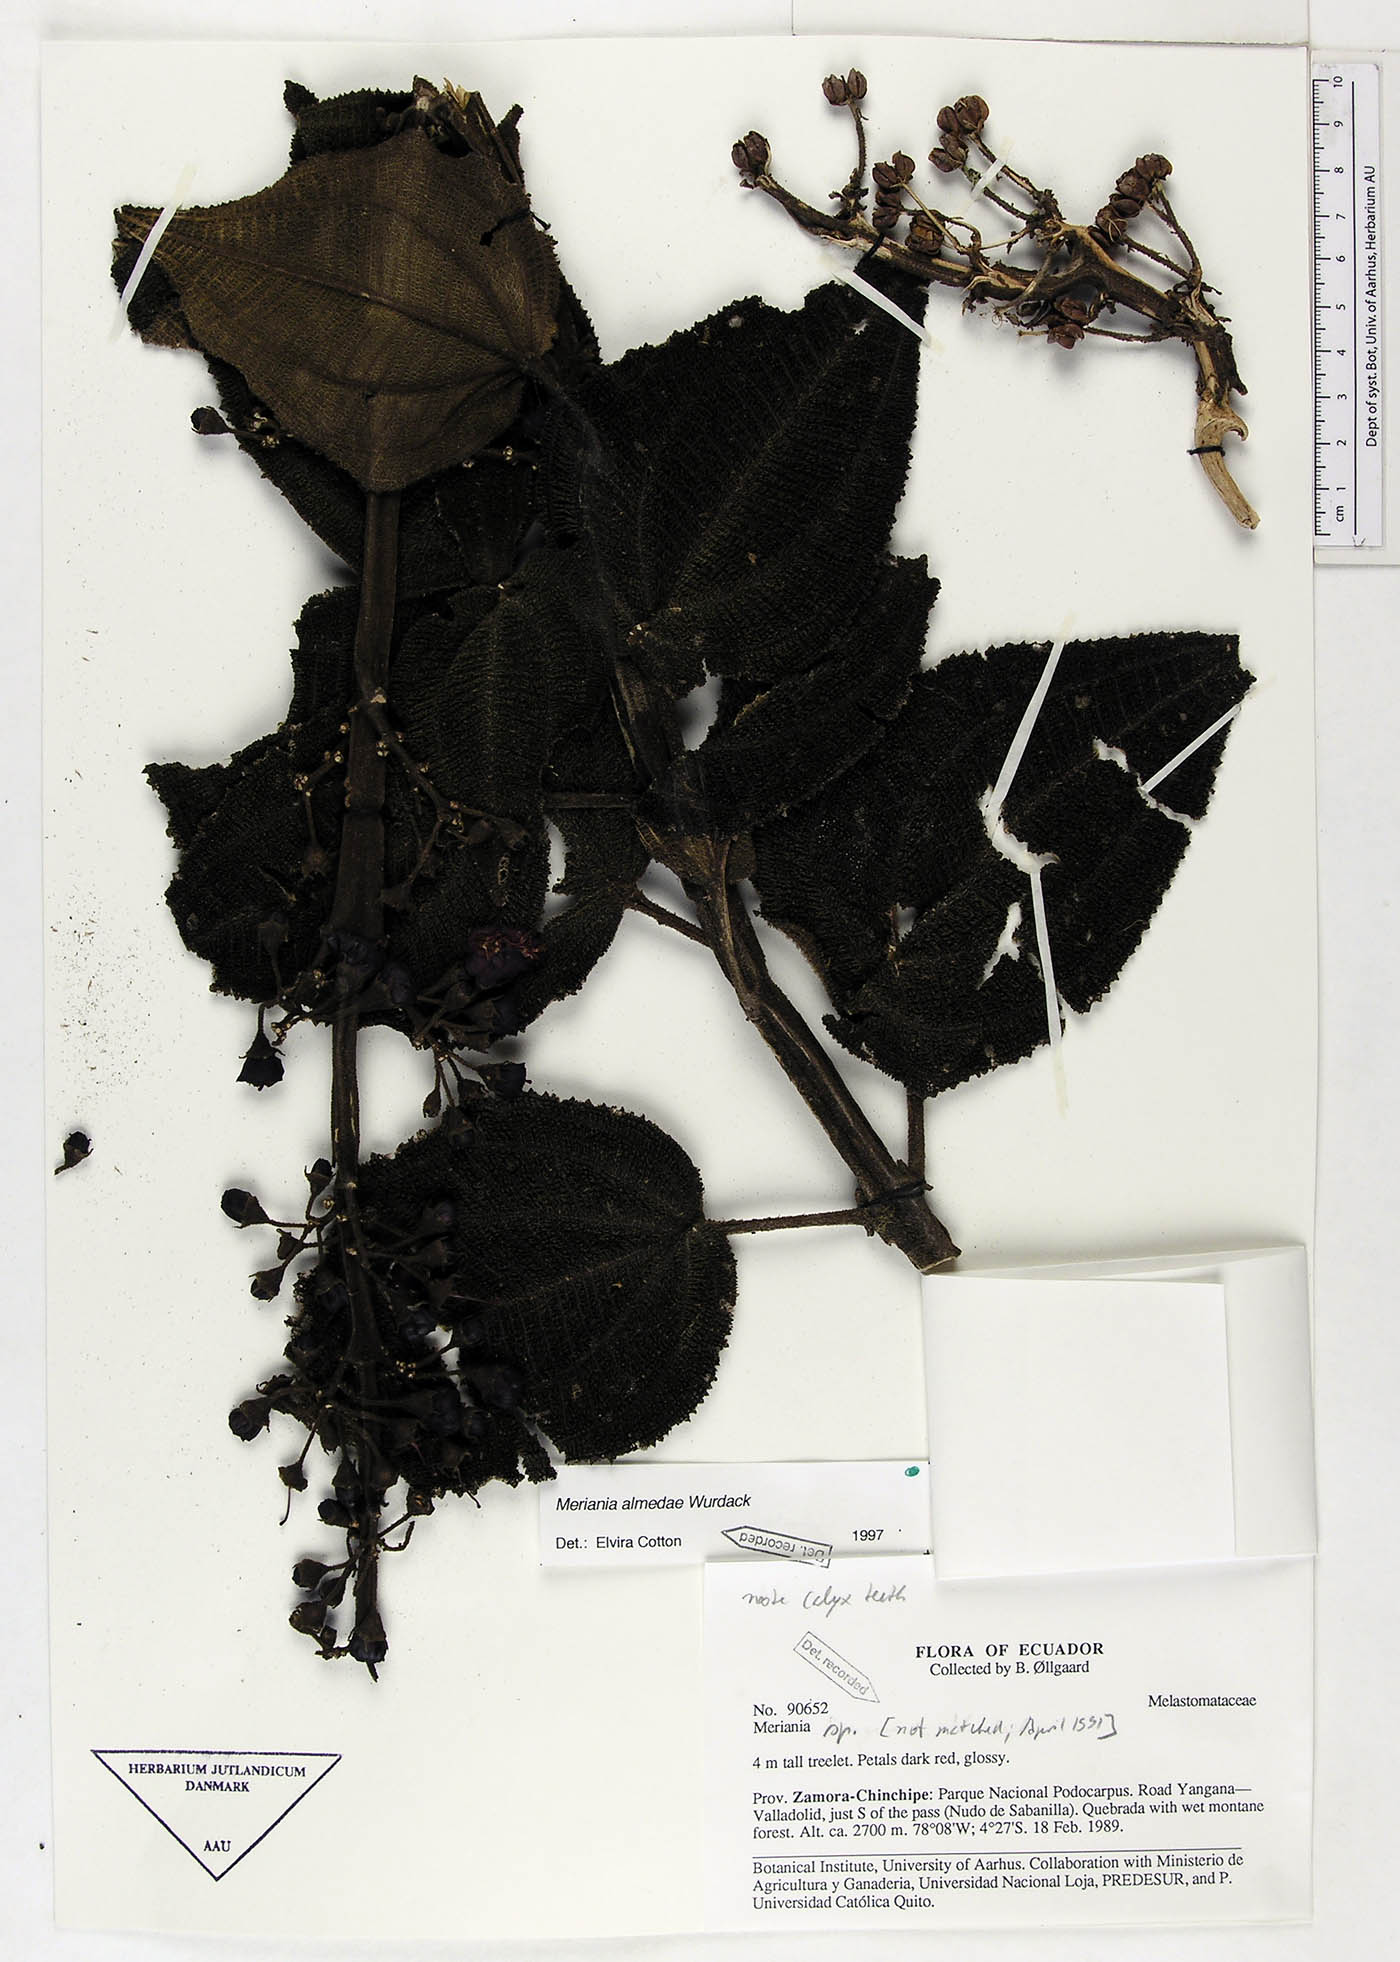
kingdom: Plantae
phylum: Tracheophyta
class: Magnoliopsida
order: Myrtales
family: Melastomataceae
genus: Meriania
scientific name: Meriania almedae
